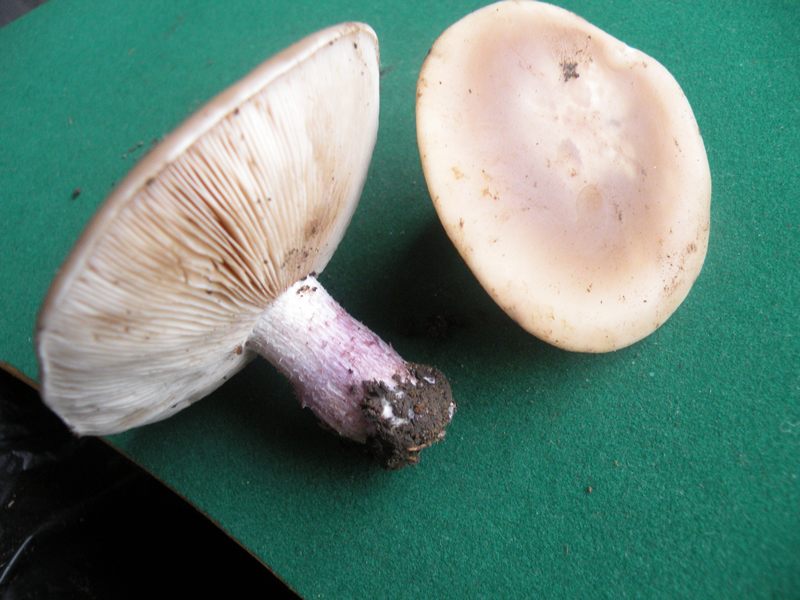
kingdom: Fungi
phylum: Basidiomycota
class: Agaricomycetes
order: Agaricales
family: Tricholomataceae
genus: Lepista
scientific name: Lepista personata
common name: bleg hekseringshat
